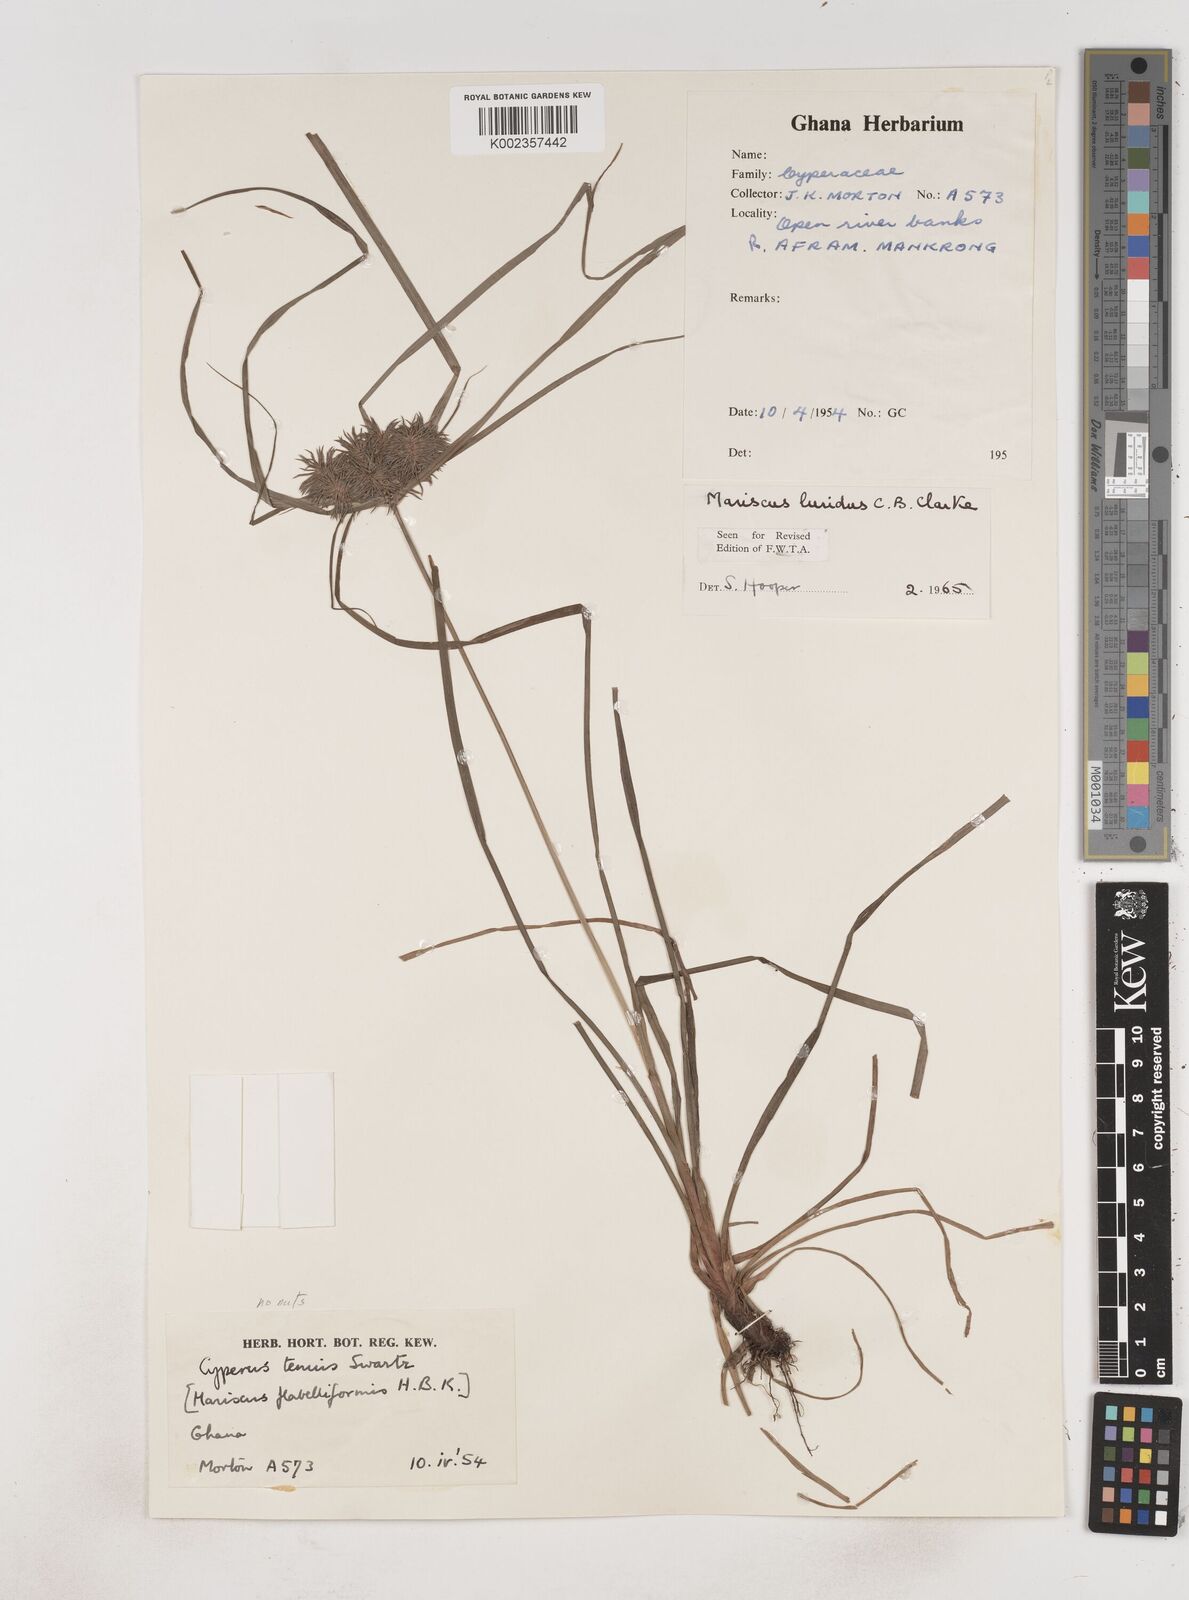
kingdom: Plantae
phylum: Tracheophyta
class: Liliopsida
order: Poales
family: Cyperaceae
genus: Cyperus
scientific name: Cyperus tenuis
